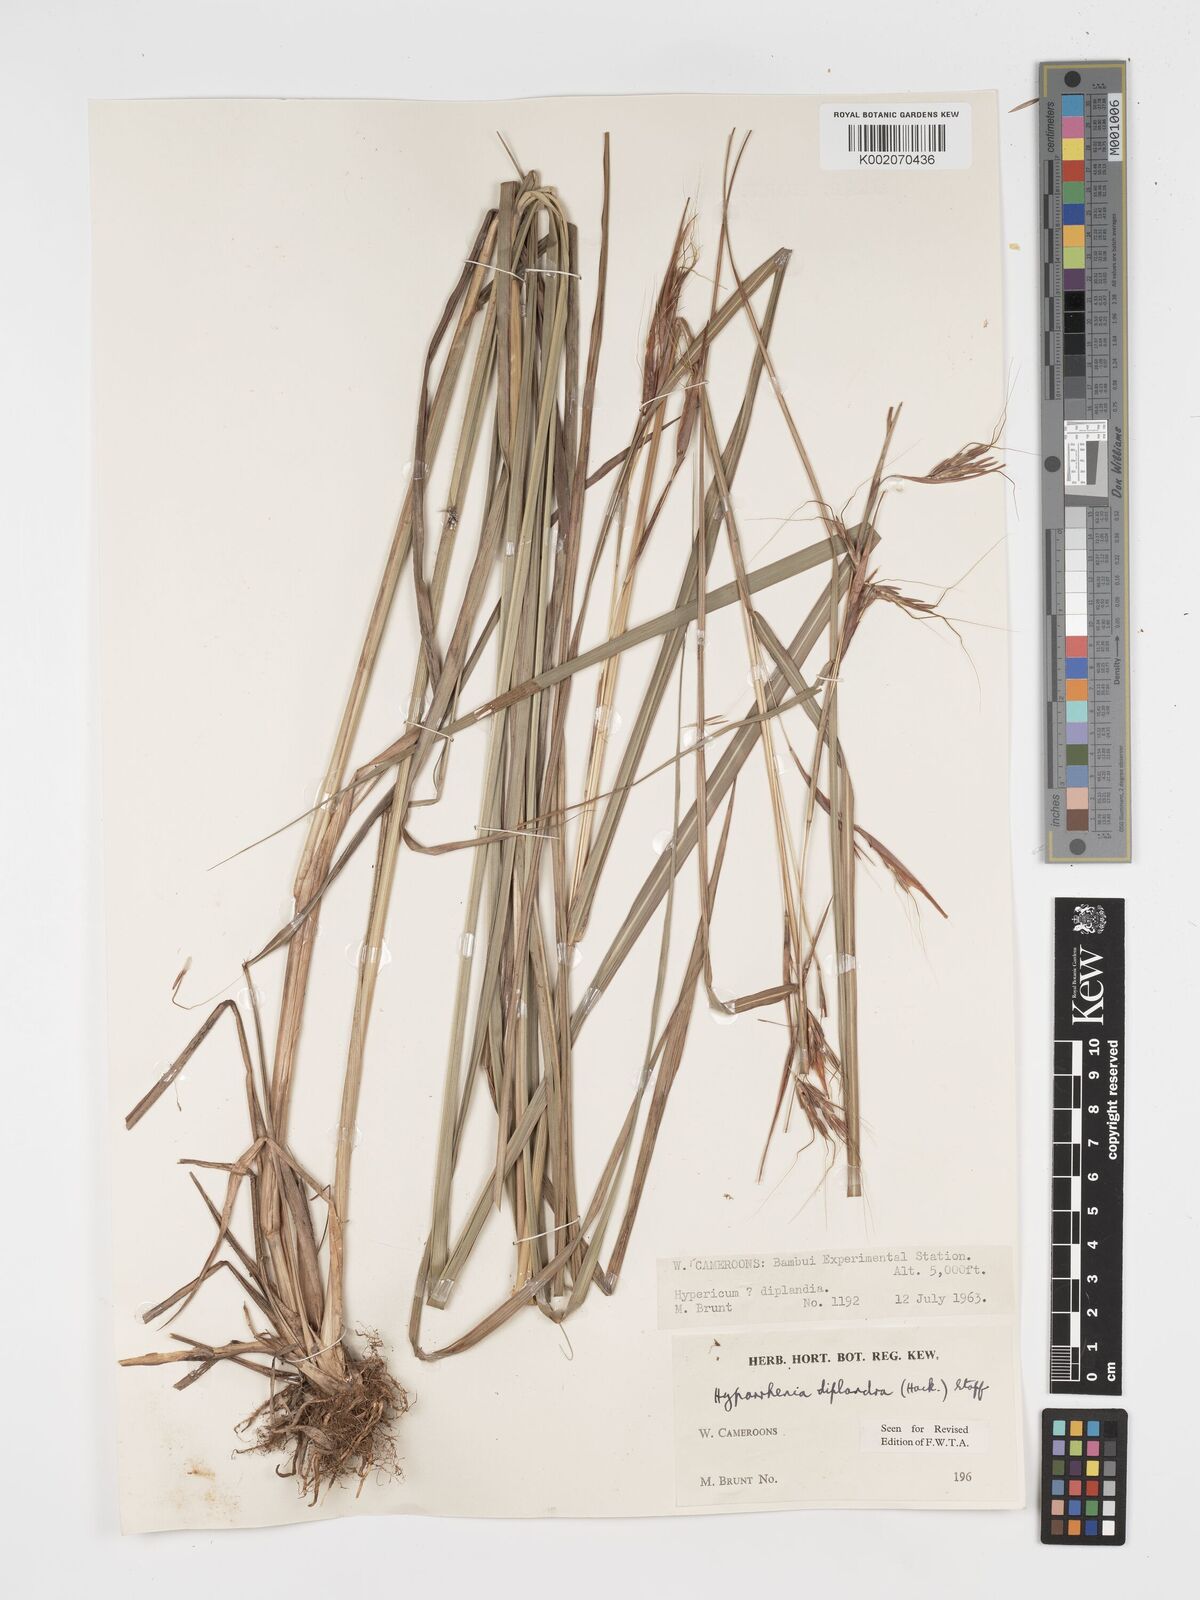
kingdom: Plantae
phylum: Tracheophyta
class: Liliopsida
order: Poales
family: Poaceae
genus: Hyparrhenia
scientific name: Hyparrhenia diplandra
